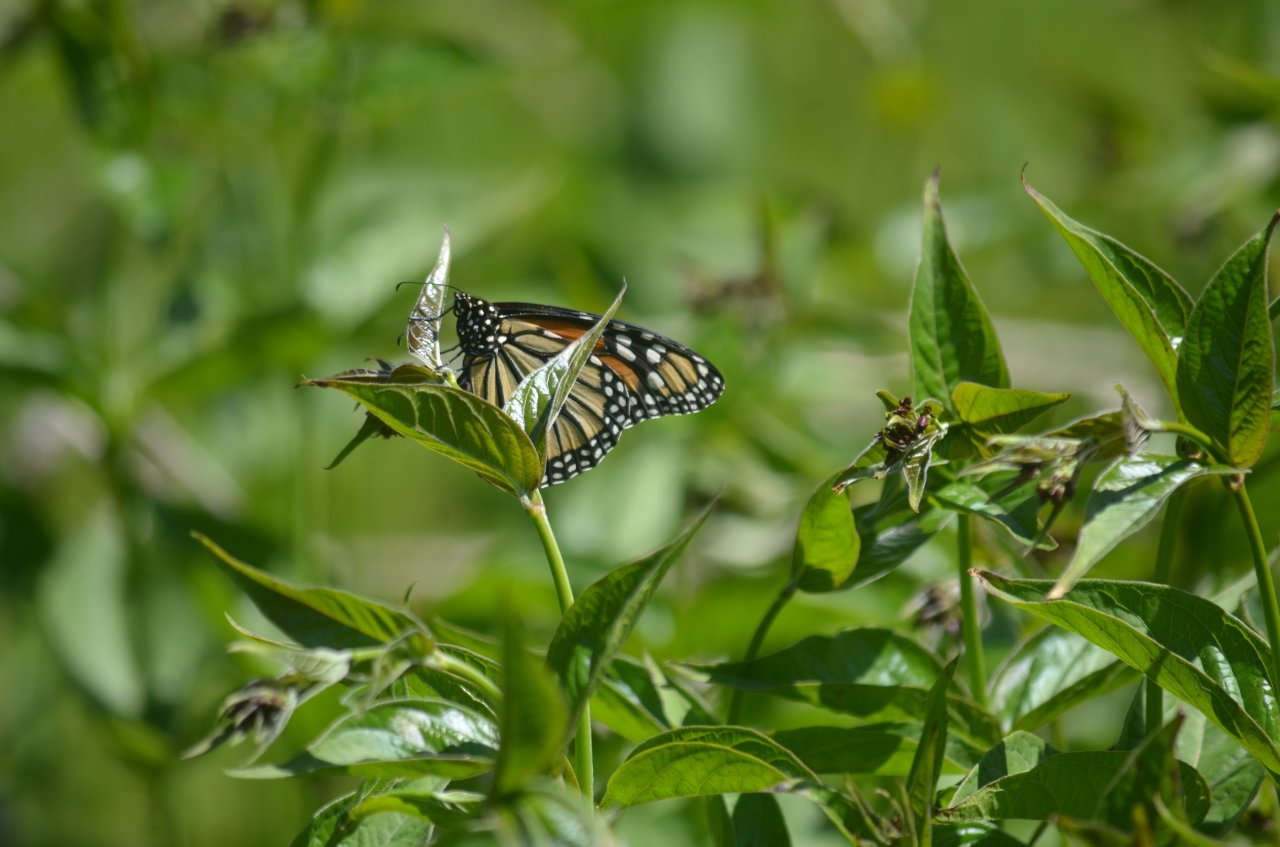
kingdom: Animalia
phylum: Arthropoda
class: Insecta
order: Lepidoptera
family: Nymphalidae
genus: Danaus
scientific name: Danaus plexippus
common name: Monarch
